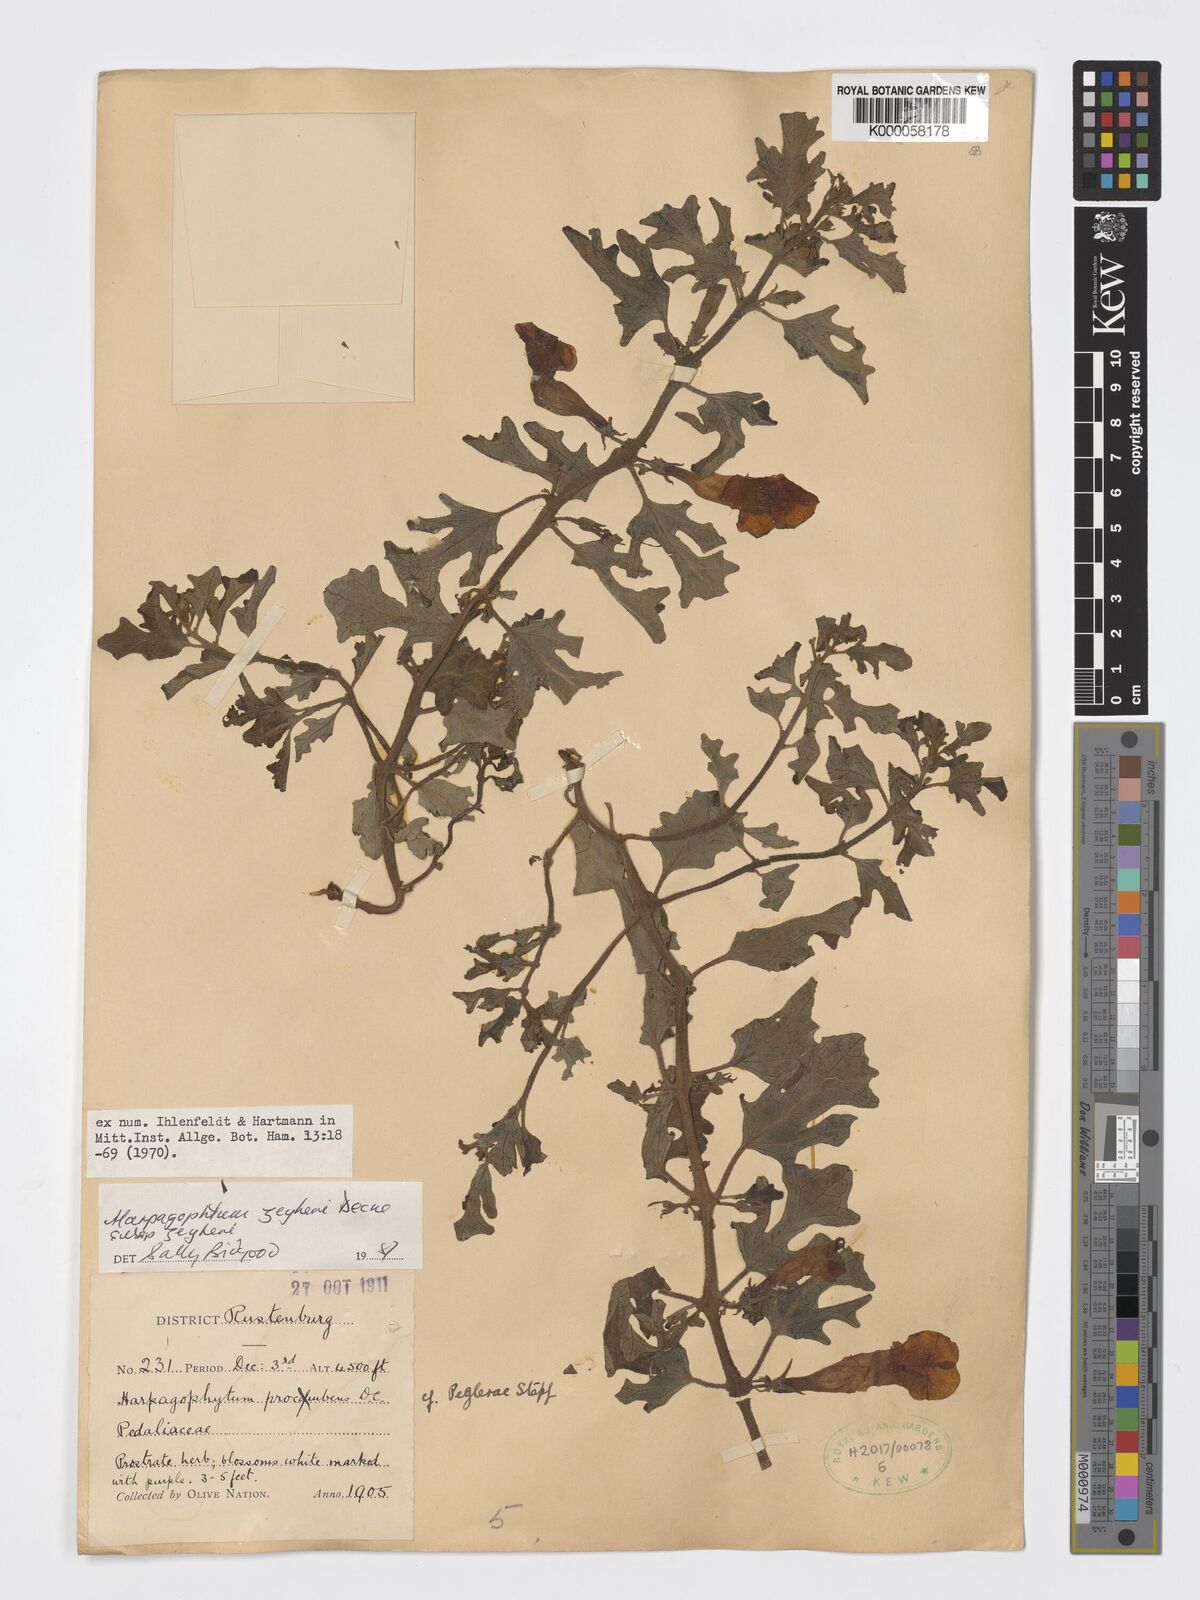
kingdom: Plantae
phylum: Tracheophyta
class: Magnoliopsida
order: Lamiales
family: Pedaliaceae
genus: Harpagophytum
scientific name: Harpagophytum zeyheri
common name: Grappleplant
